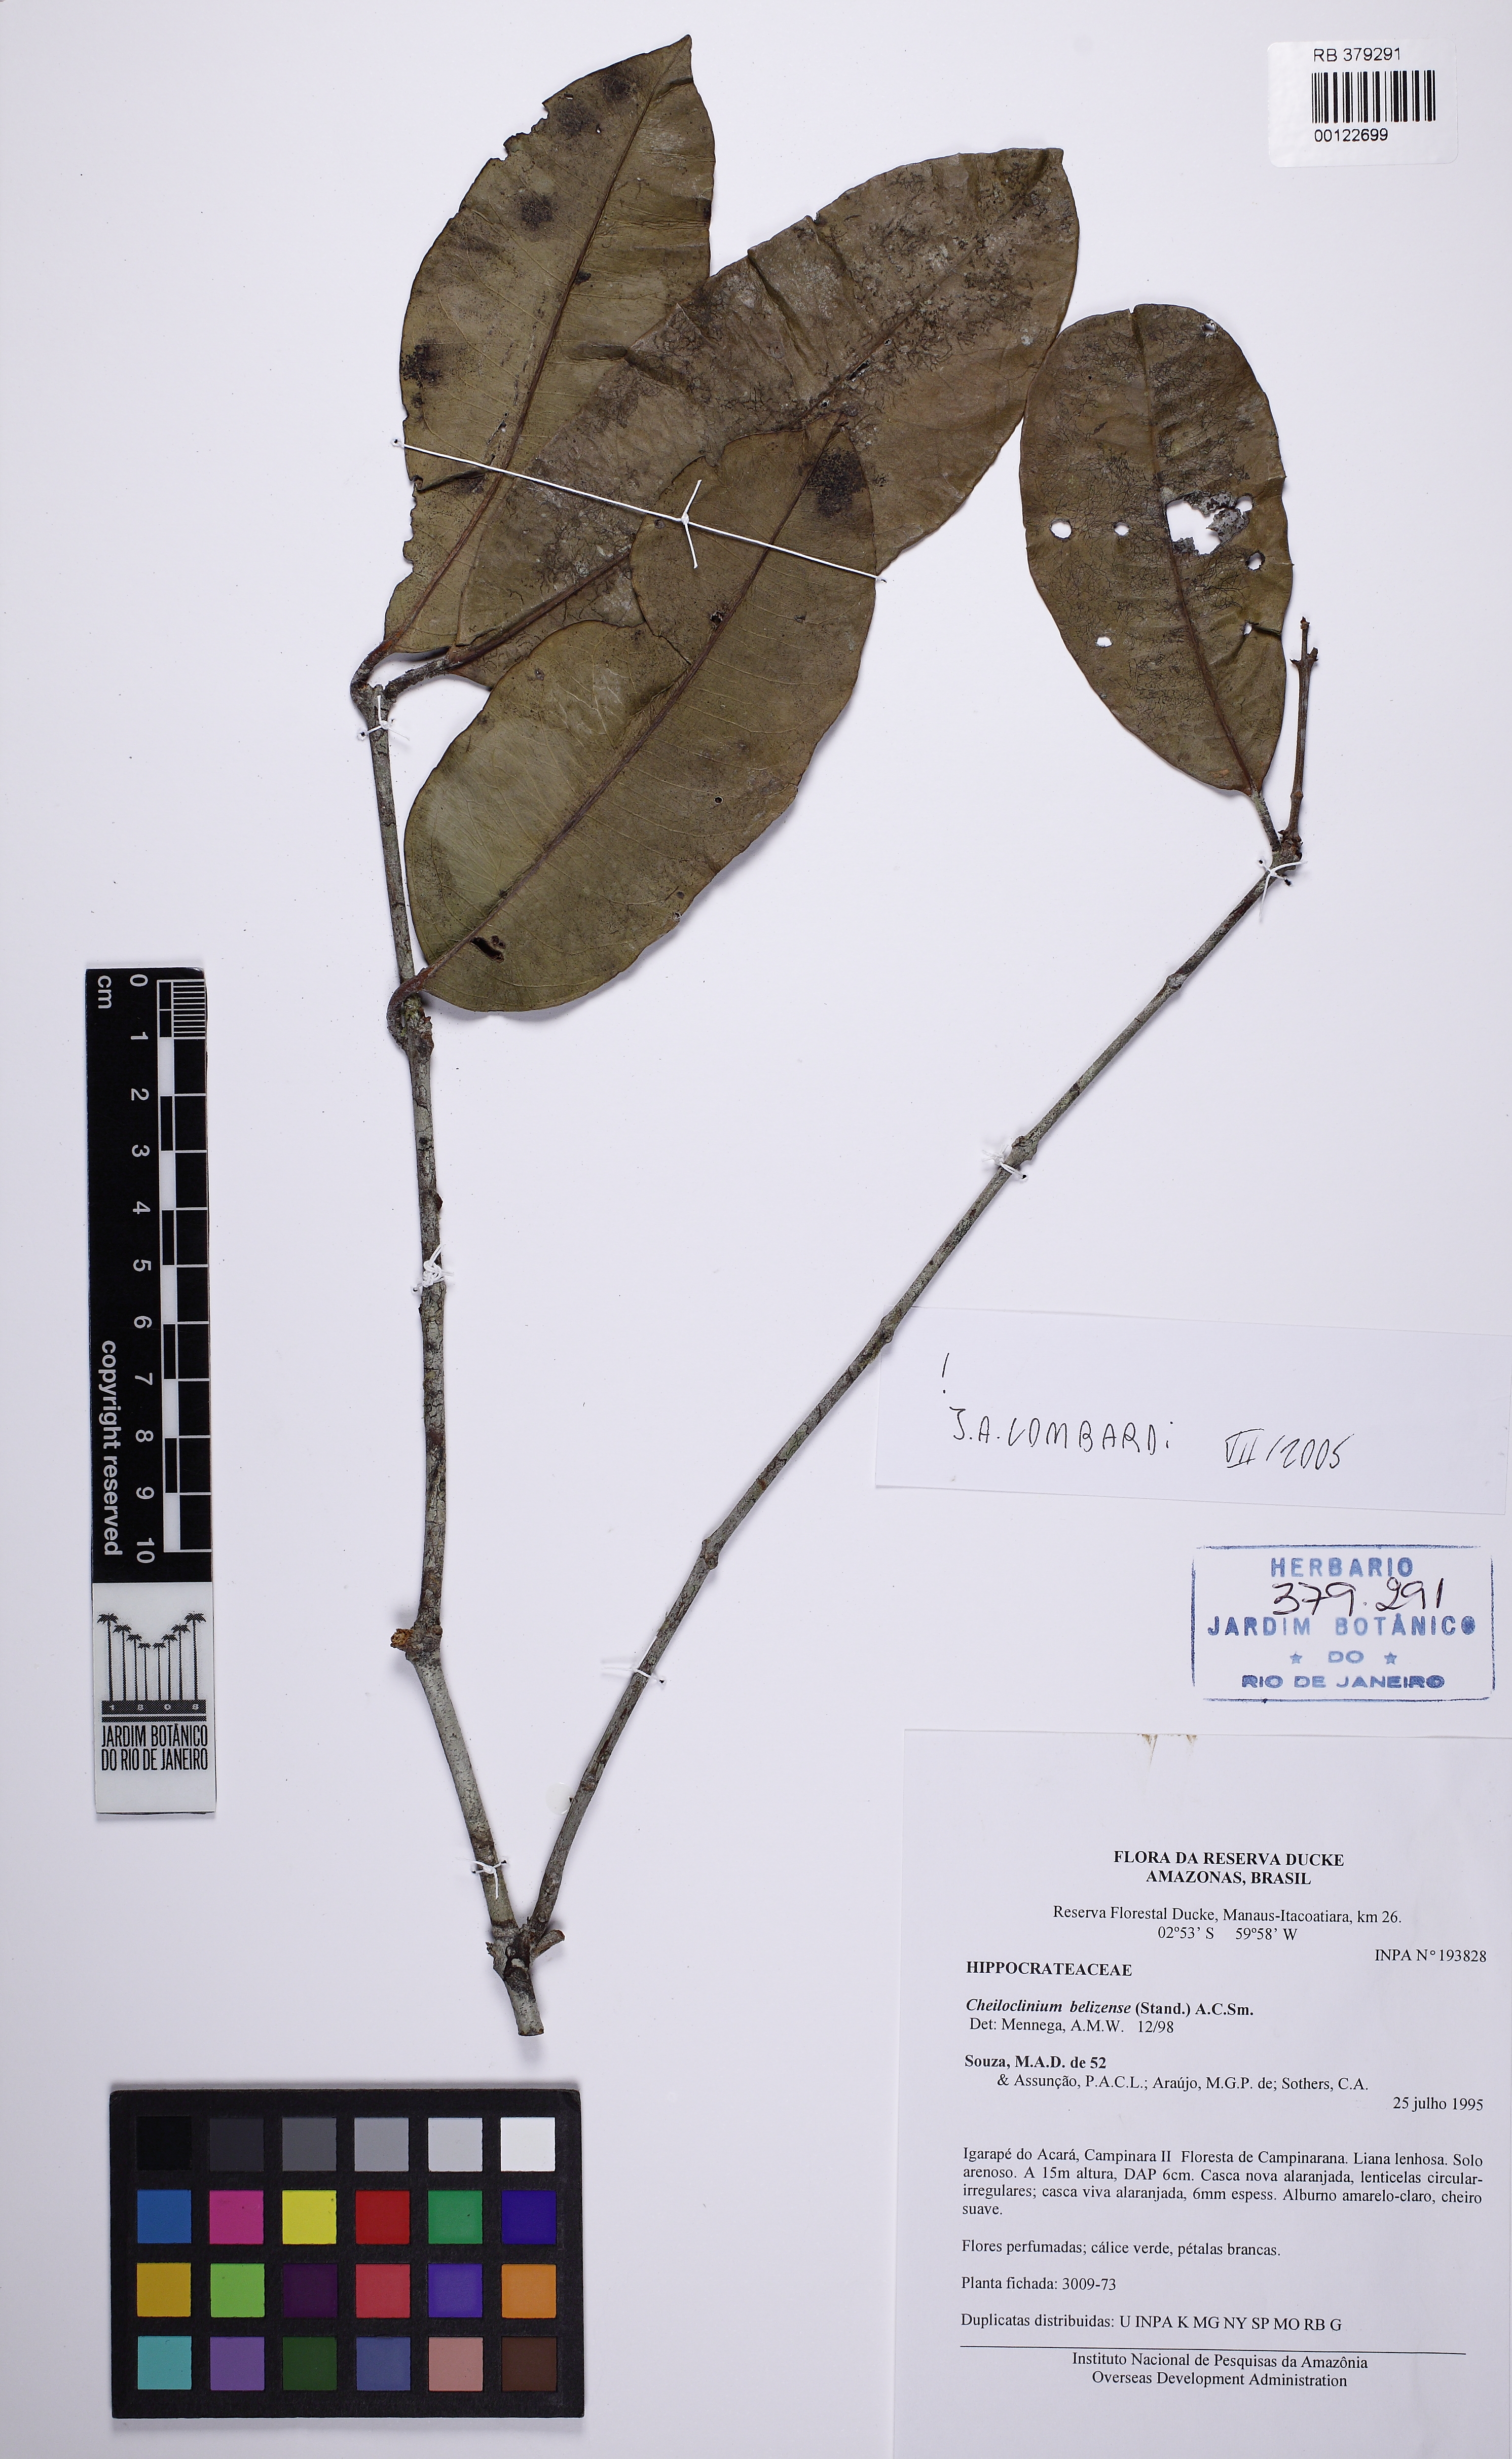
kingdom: Plantae
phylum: Tracheophyta
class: Magnoliopsida
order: Celastrales
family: Celastraceae
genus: Cheiloclinium
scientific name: Cheiloclinium belizense
